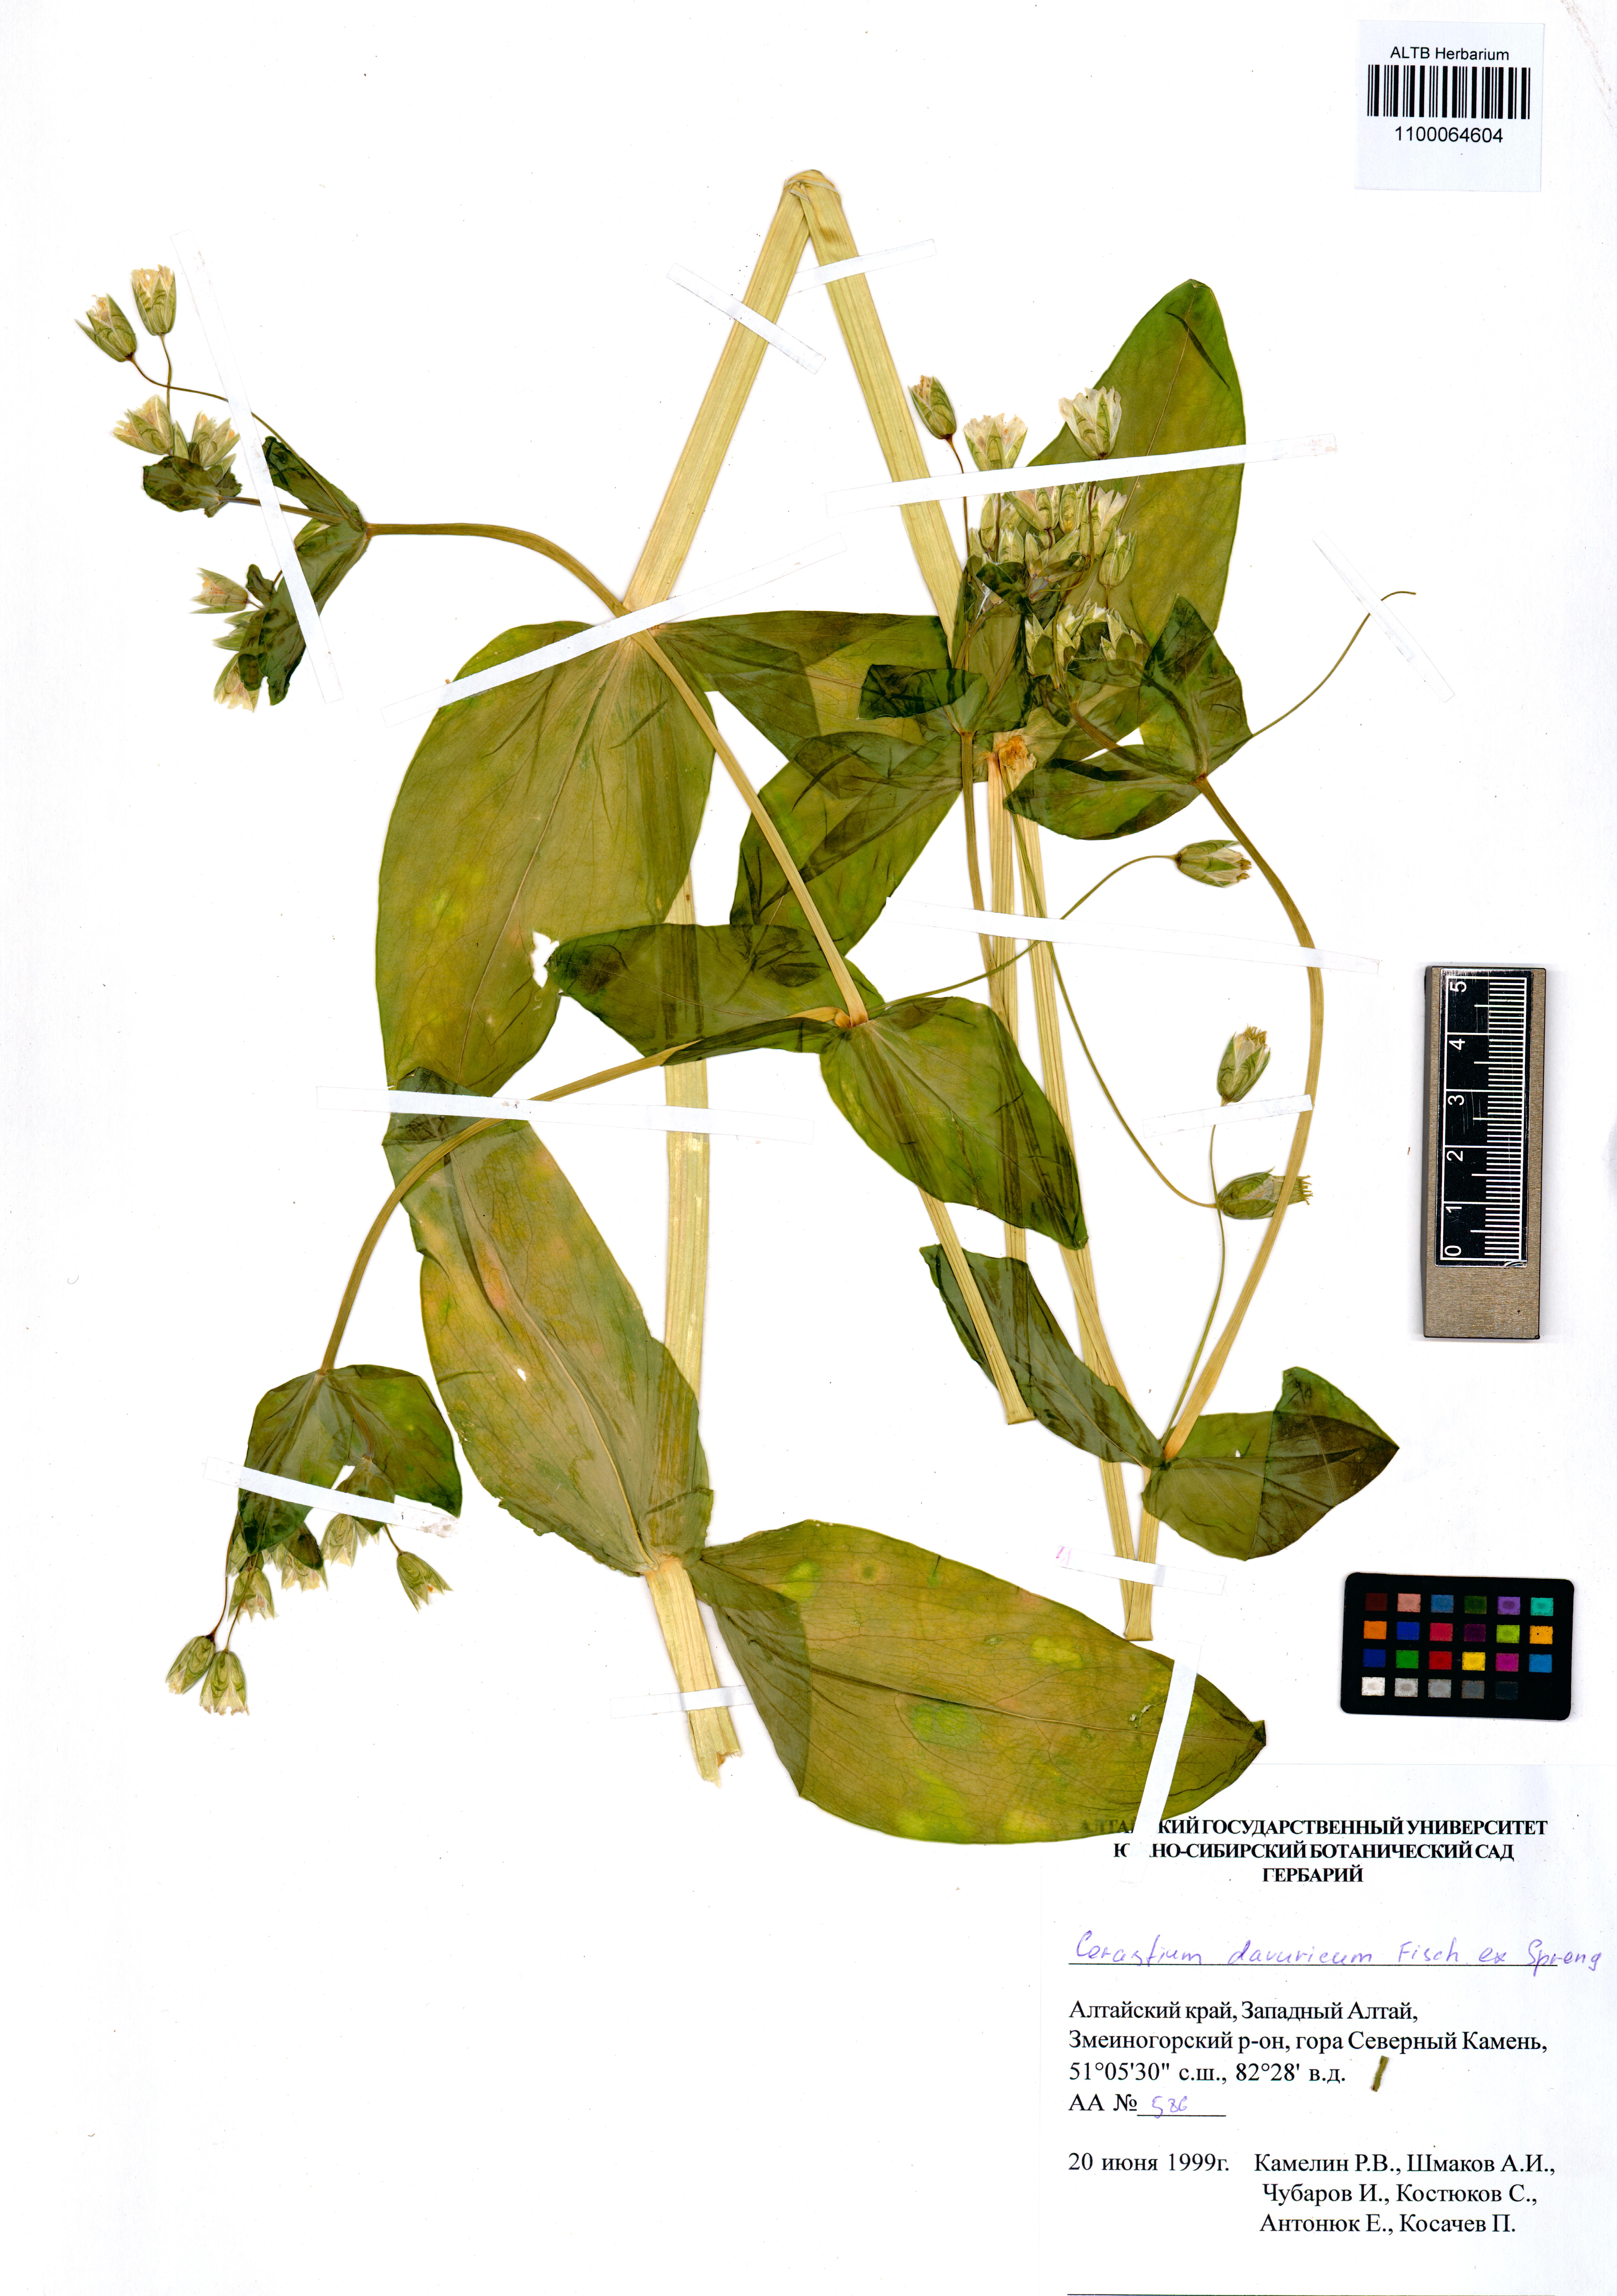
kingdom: Plantae
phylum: Tracheophyta
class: Magnoliopsida
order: Caryophyllales
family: Caryophyllaceae
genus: Dichodon
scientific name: Dichodon davuricum
